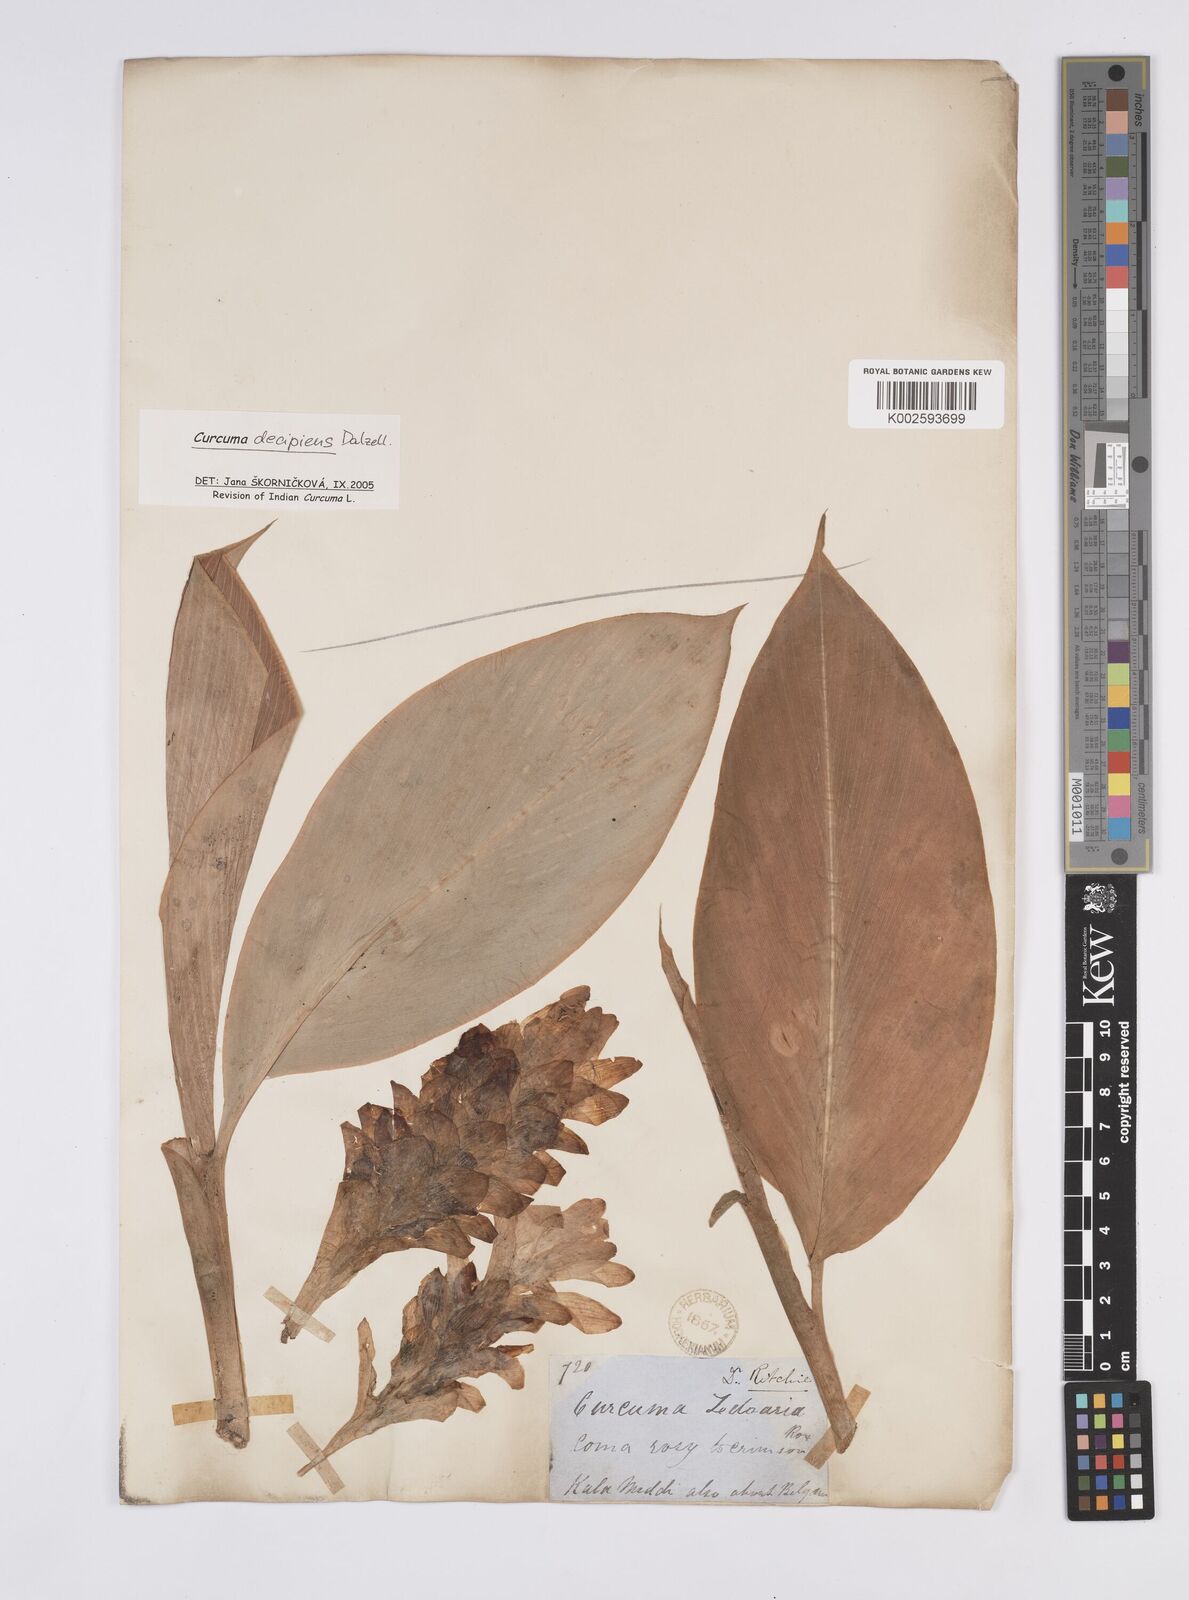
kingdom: Plantae
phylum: Tracheophyta
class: Liliopsida
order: Zingiberales
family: Zingiberaceae
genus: Curcuma
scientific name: Curcuma decipiens
